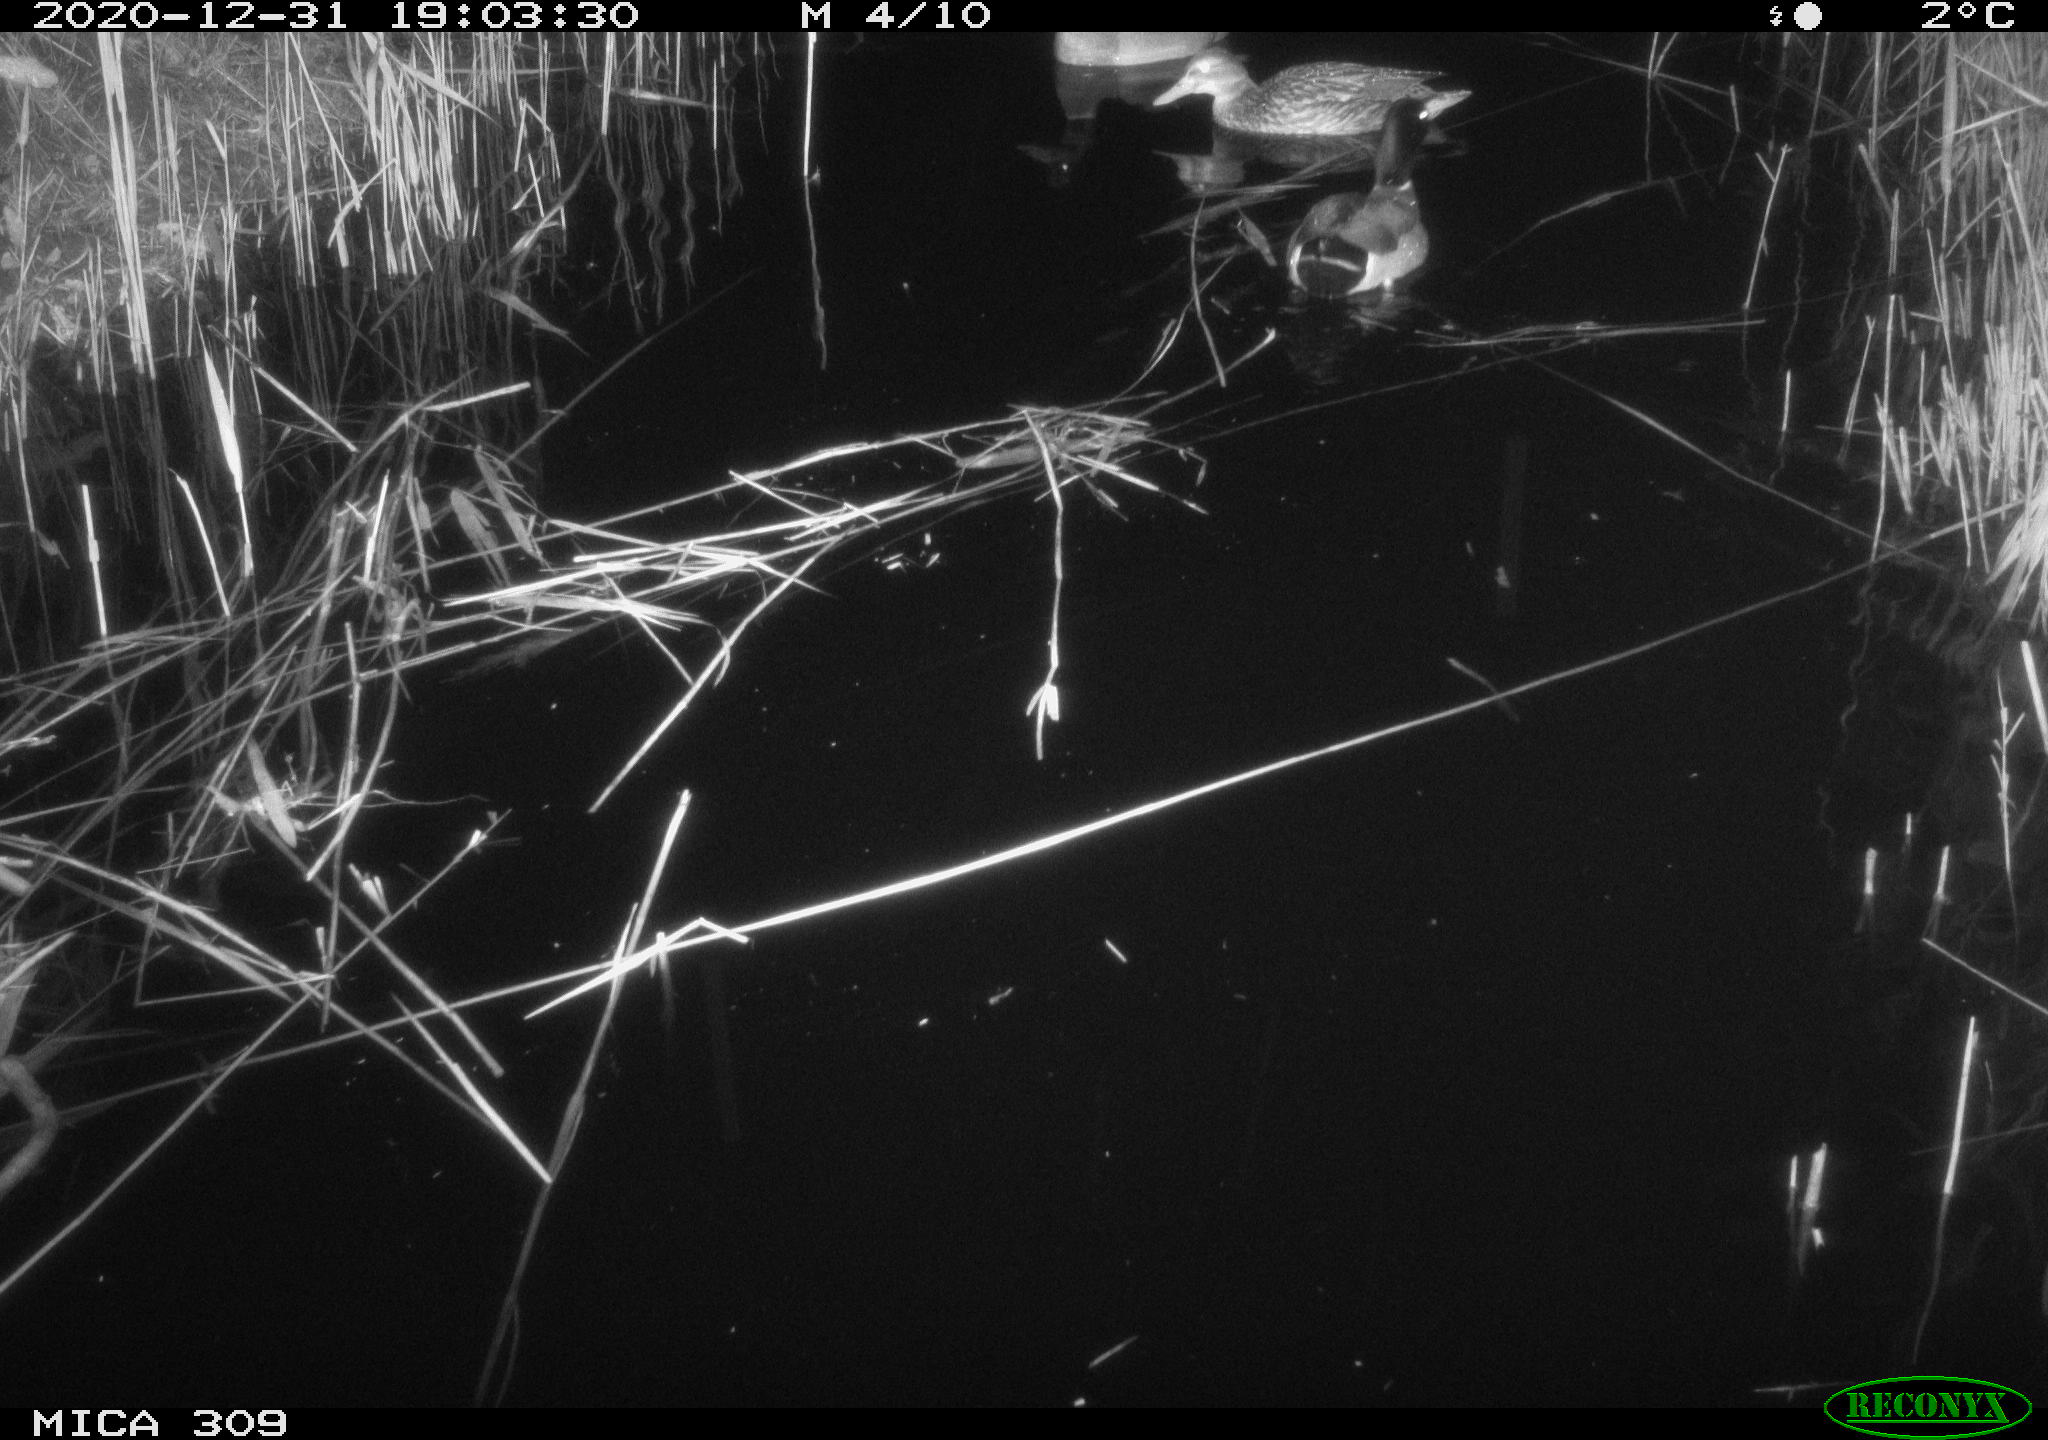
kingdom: Animalia
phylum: Chordata
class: Aves
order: Anseriformes
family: Anatidae
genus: Anas
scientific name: Anas platyrhynchos
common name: Mallard
